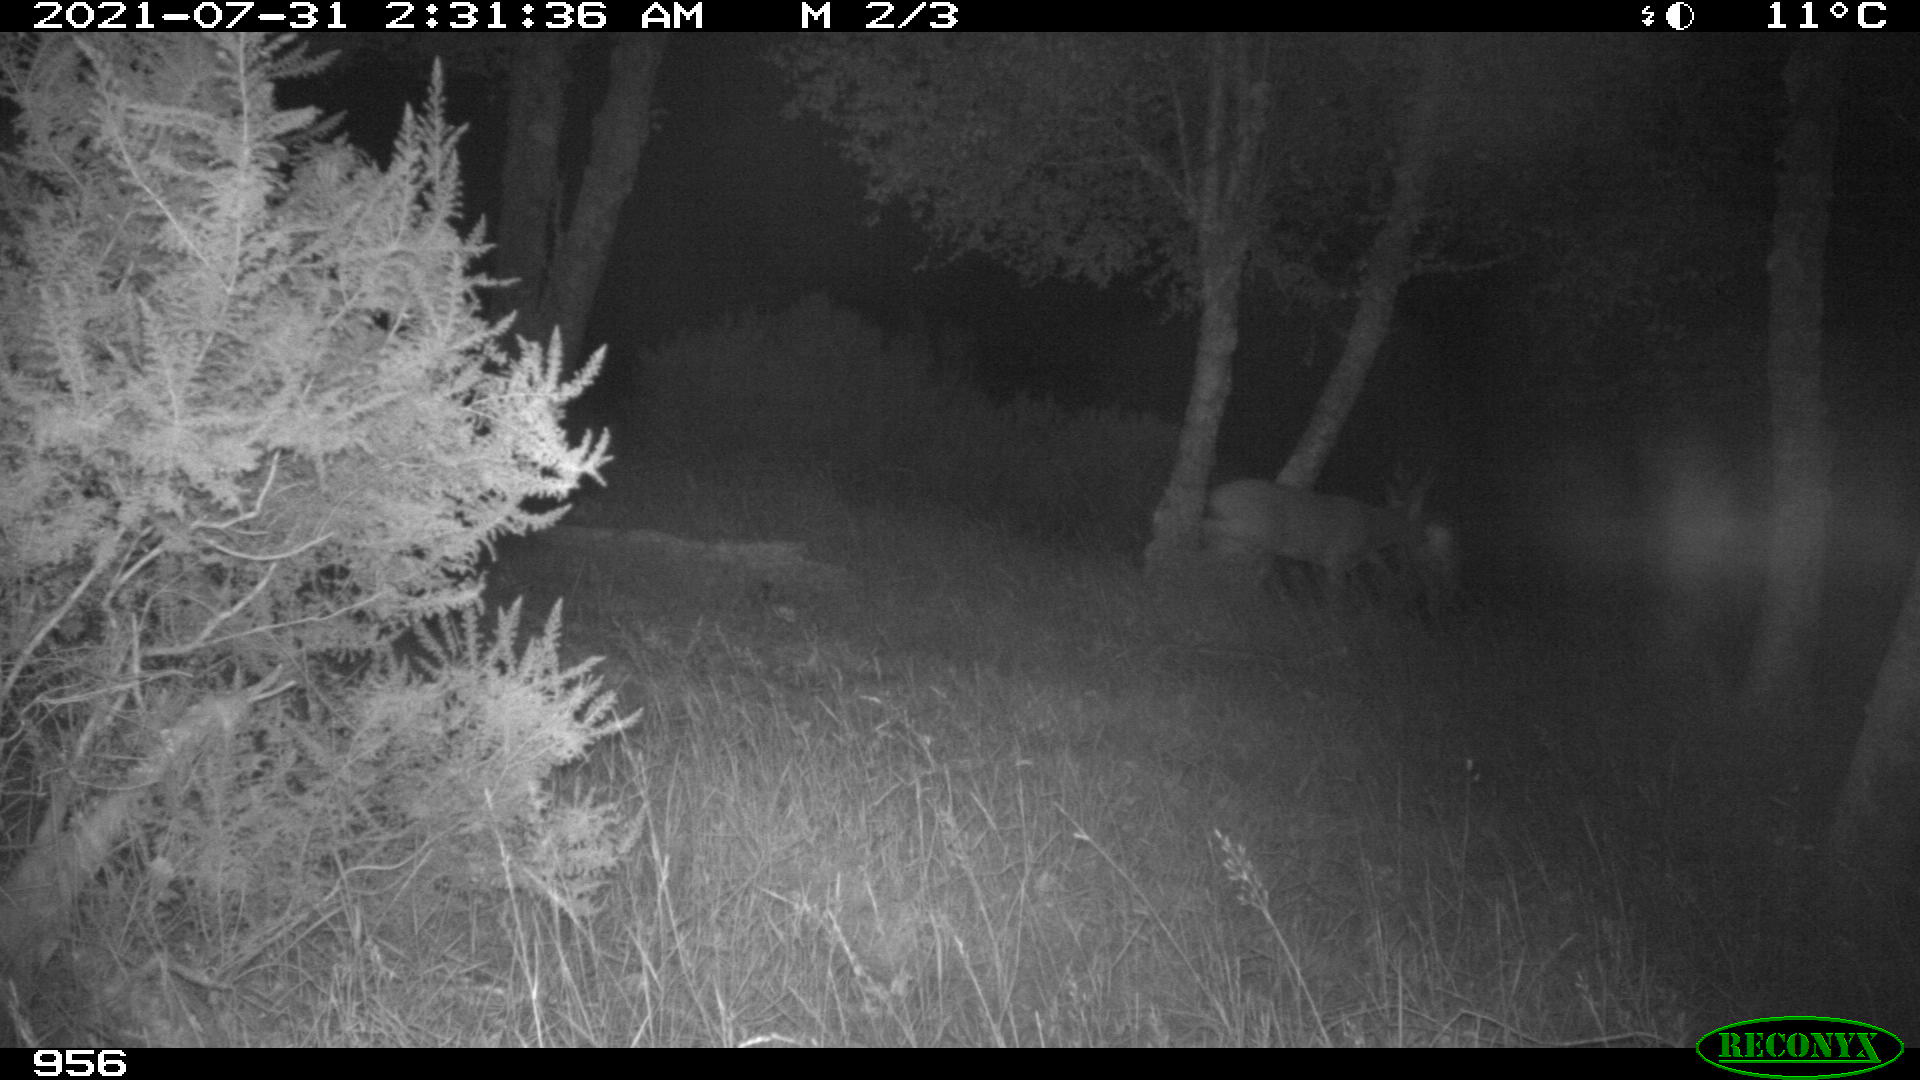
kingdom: Animalia
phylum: Chordata
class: Mammalia
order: Artiodactyla
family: Cervidae
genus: Capreolus
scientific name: Capreolus capreolus
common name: Western roe deer
